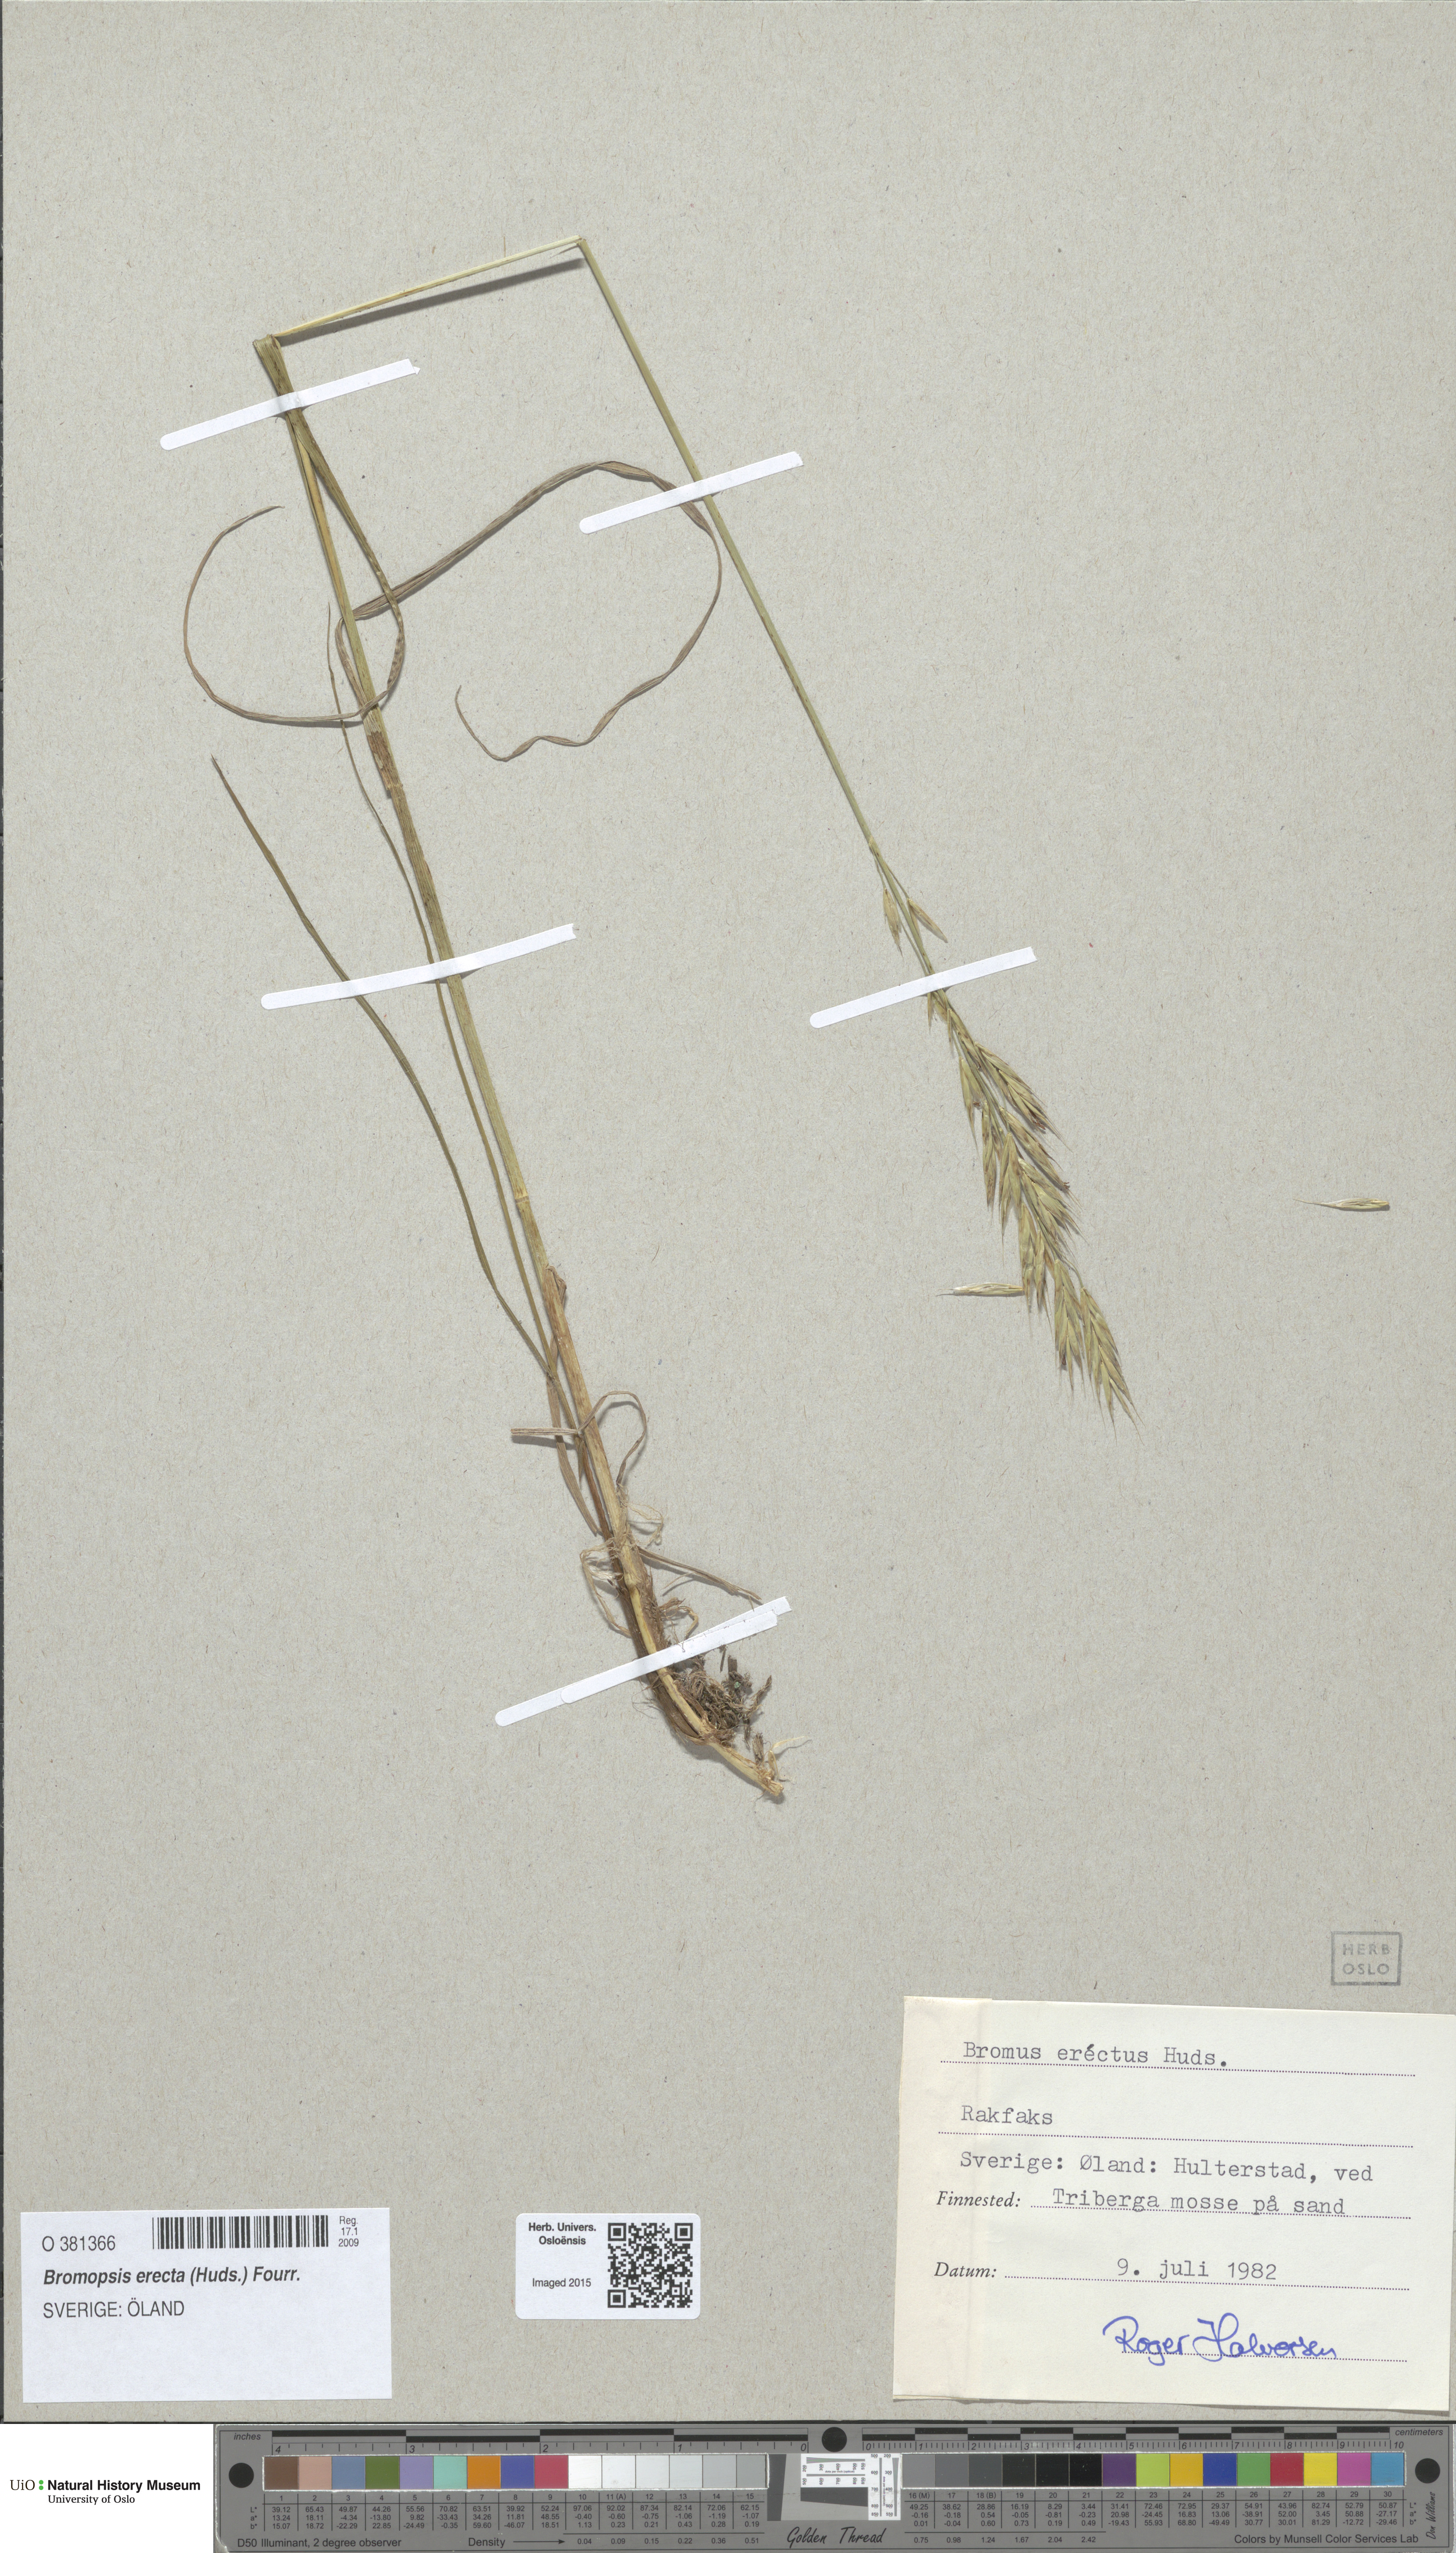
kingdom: Plantae
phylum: Tracheophyta
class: Liliopsida
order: Poales
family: Poaceae
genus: Bromus
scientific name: Bromus erectus
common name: Erect brome
